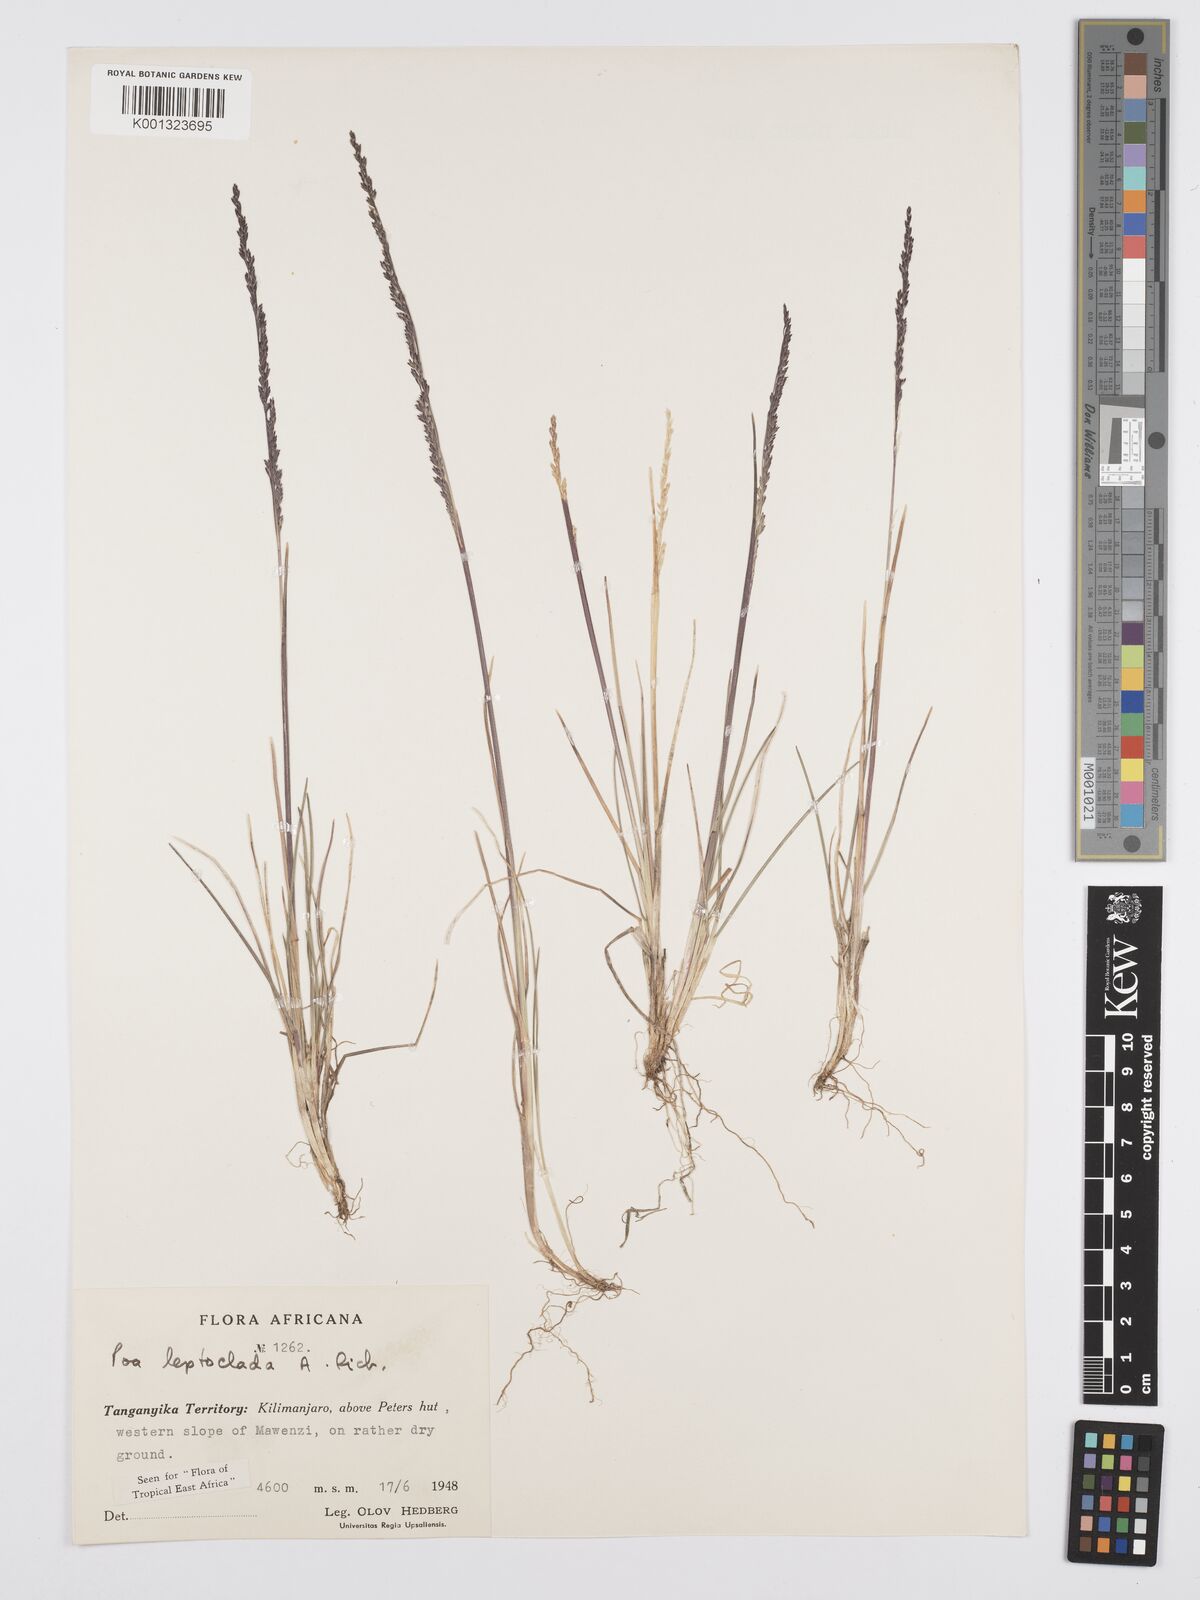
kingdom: Plantae
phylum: Tracheophyta
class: Liliopsida
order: Poales
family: Poaceae
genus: Poa
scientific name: Poa leptoclada
